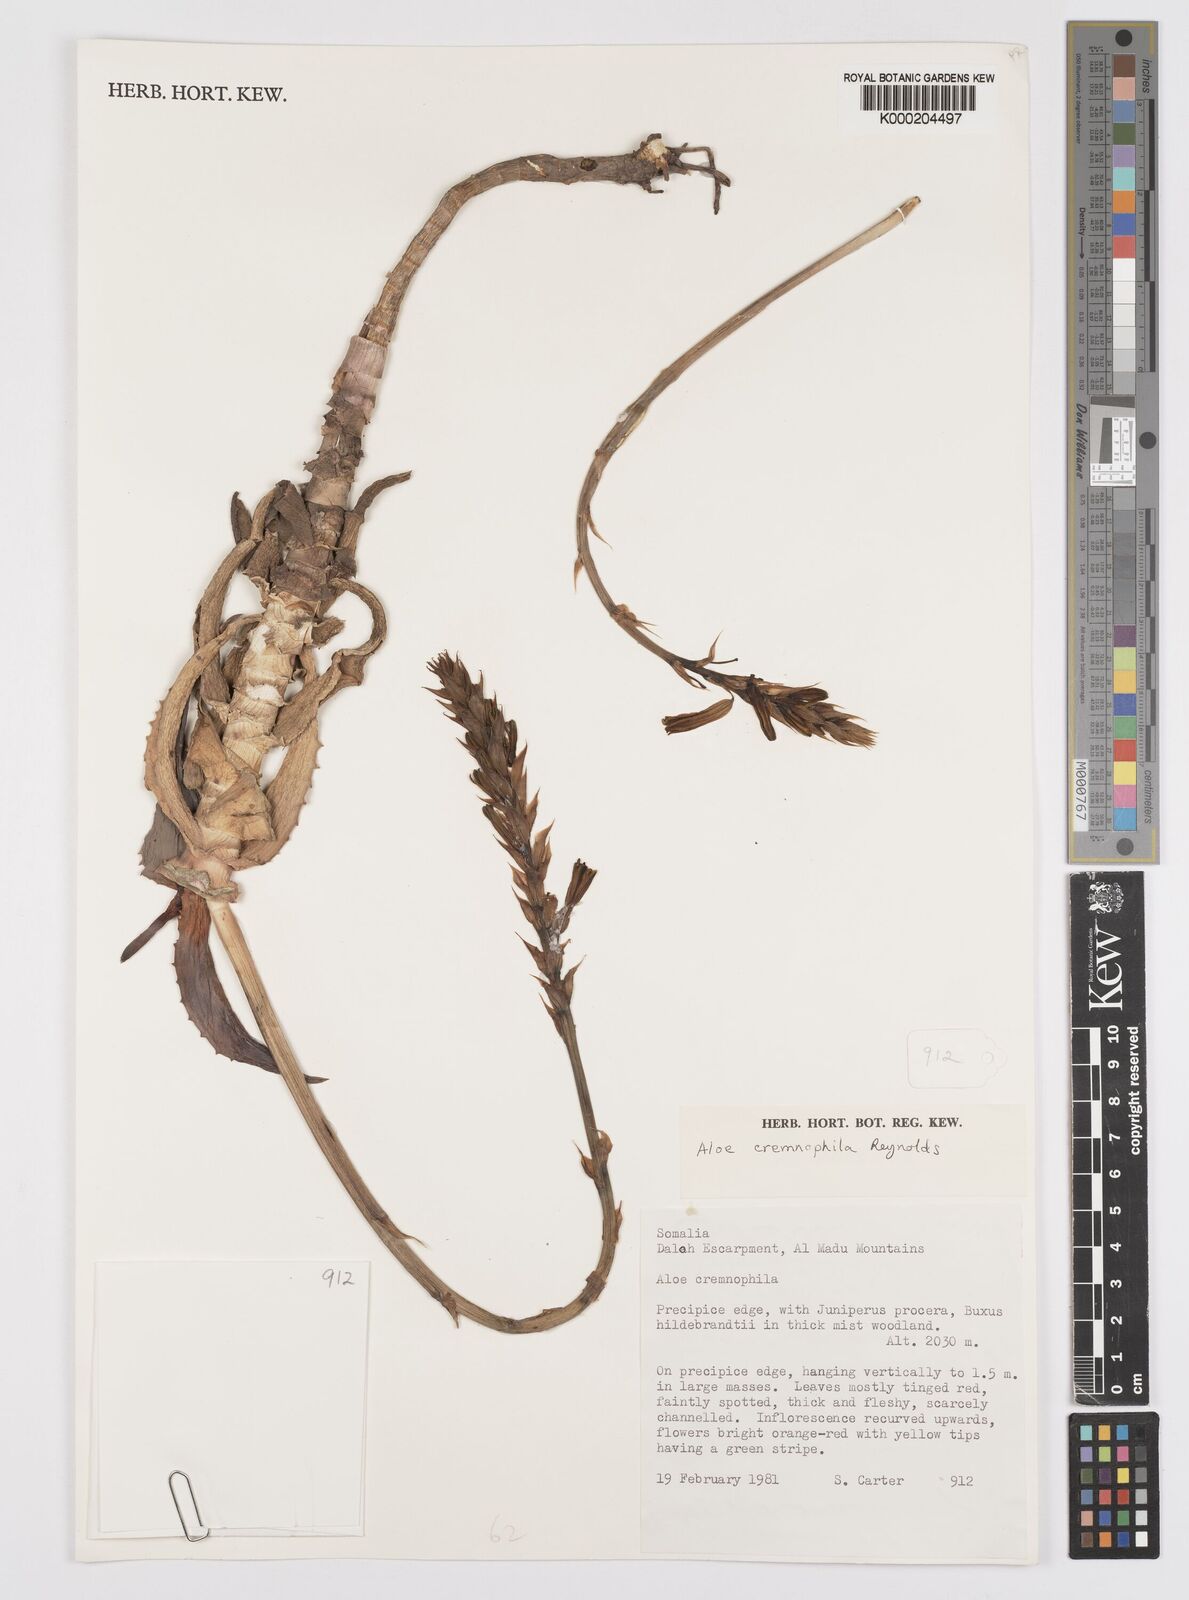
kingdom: Plantae
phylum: Tracheophyta
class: Liliopsida
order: Asparagales
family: Asphodelaceae
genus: Aloe
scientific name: Aloe cremnophila
